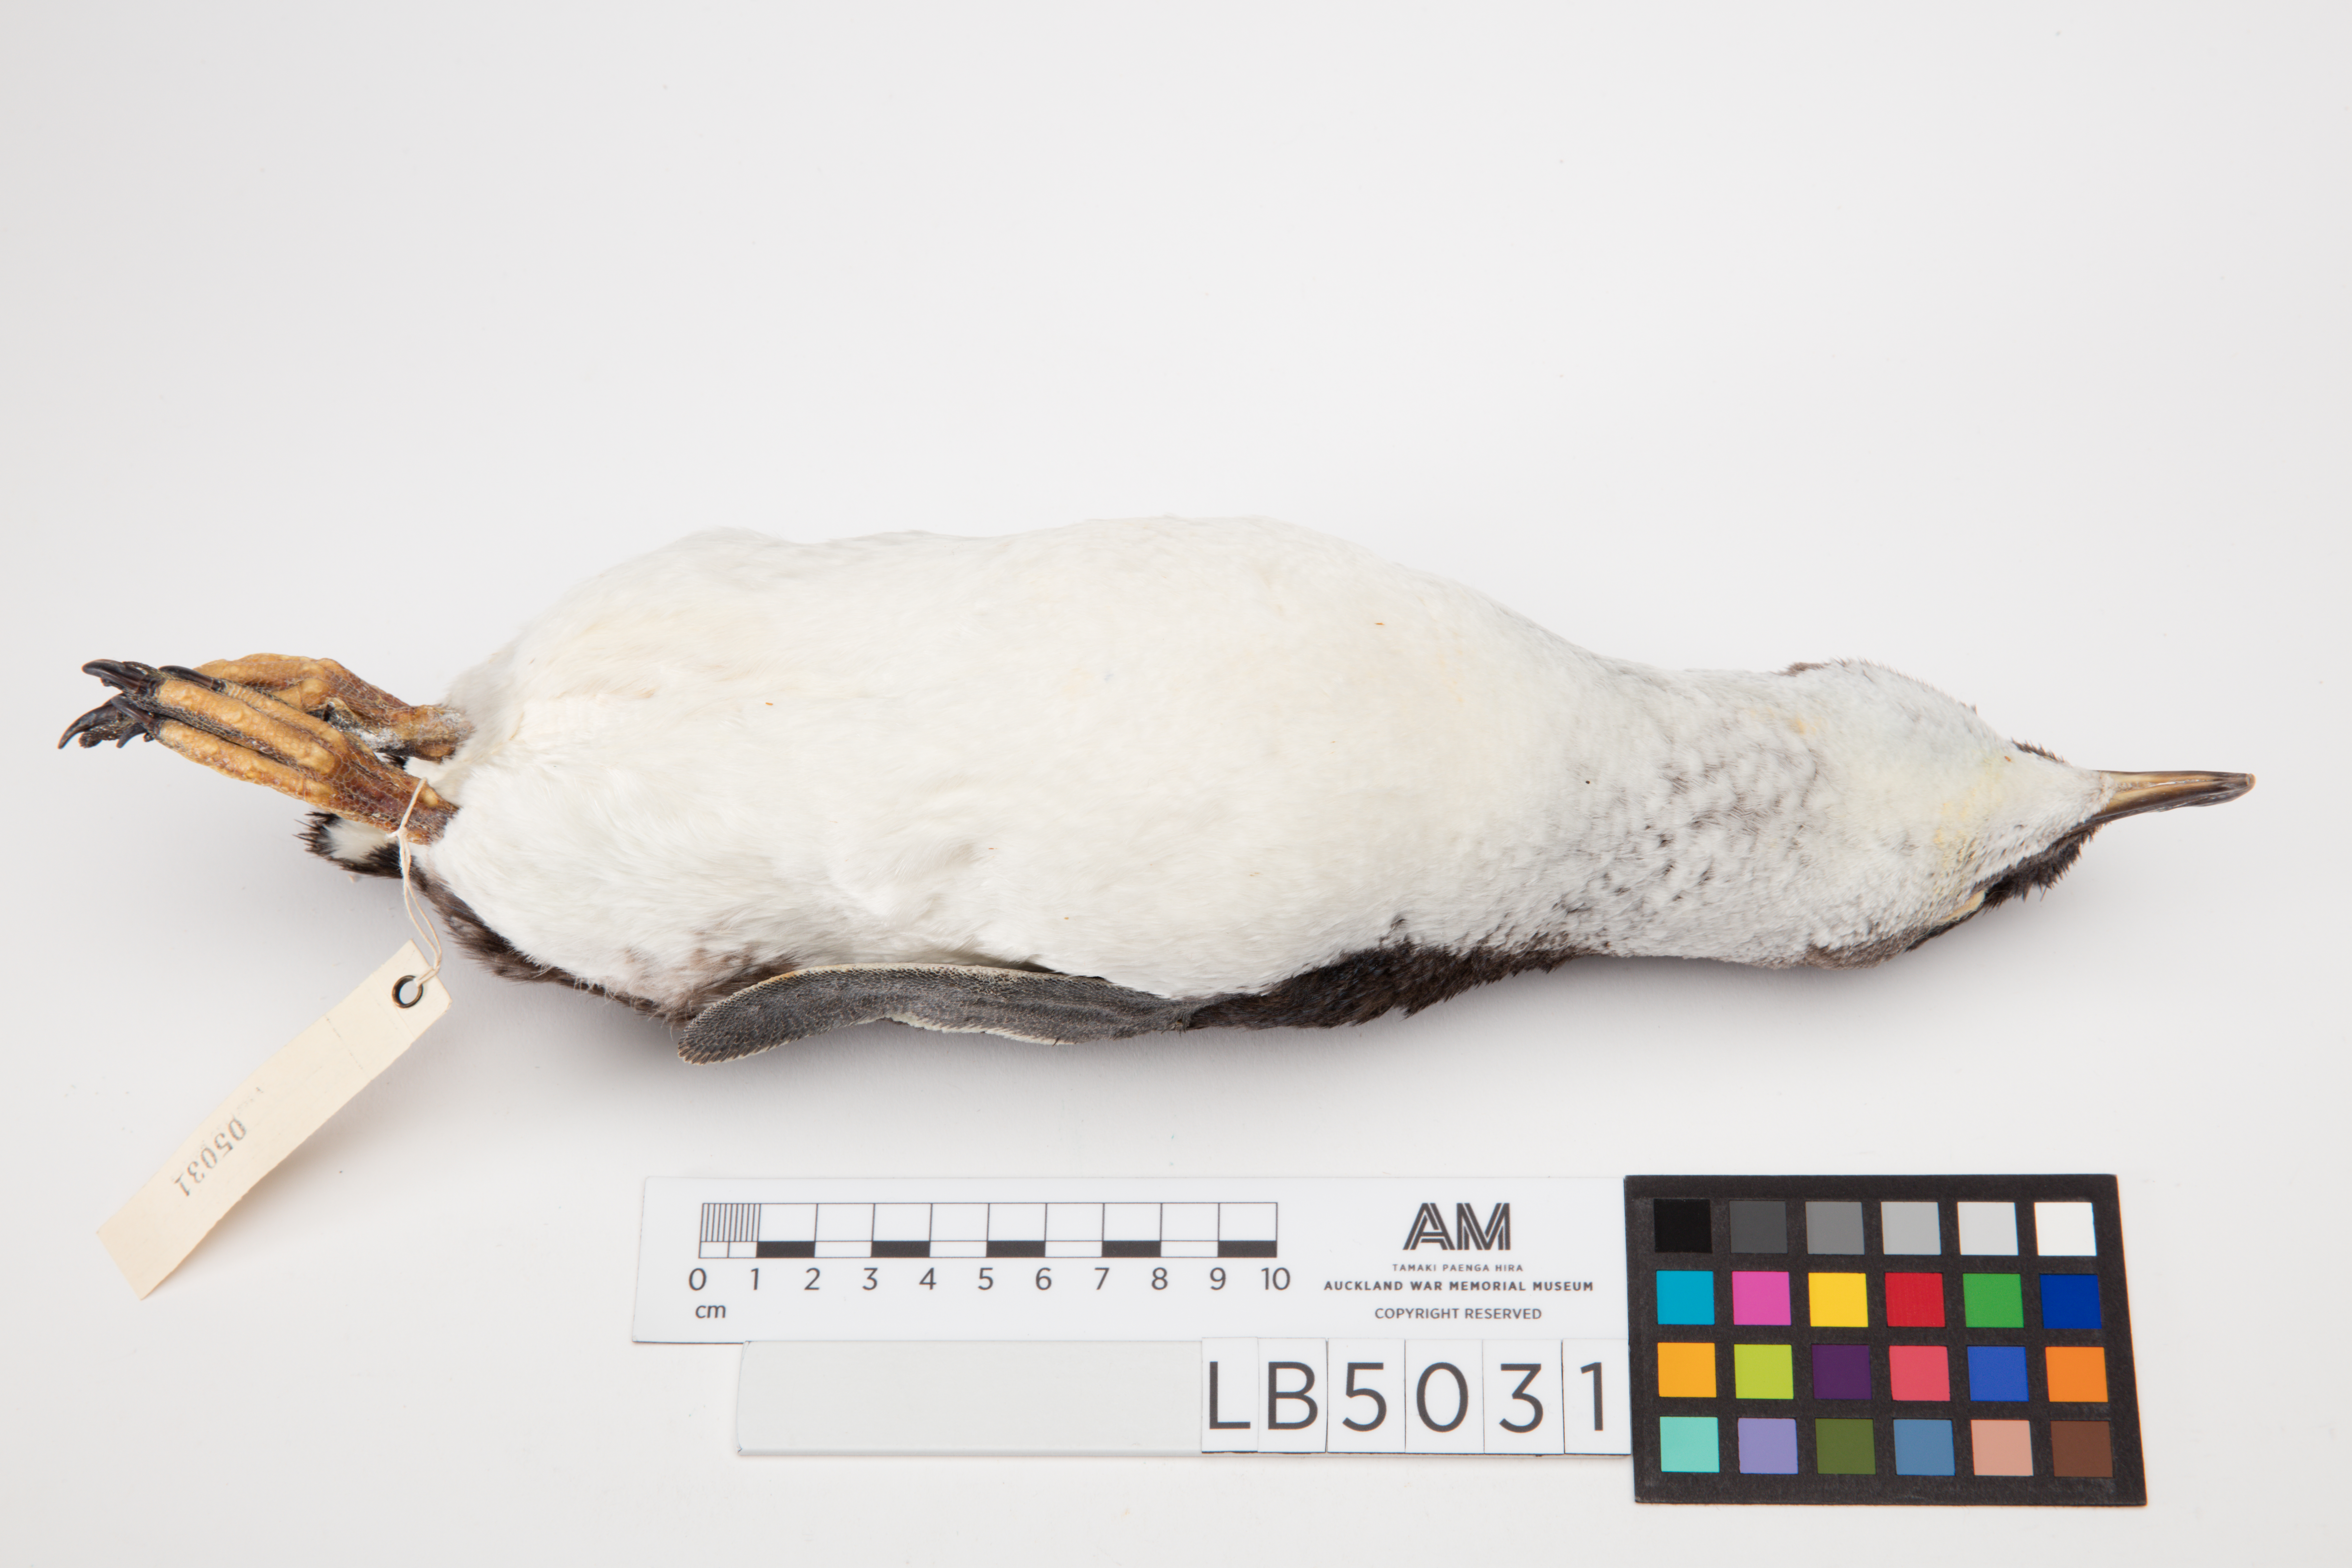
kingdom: Animalia
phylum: Chordata
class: Aves
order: Sphenisciformes
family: Spheniscidae
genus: Eudyptula
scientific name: Eudyptula minor
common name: Little penguin
